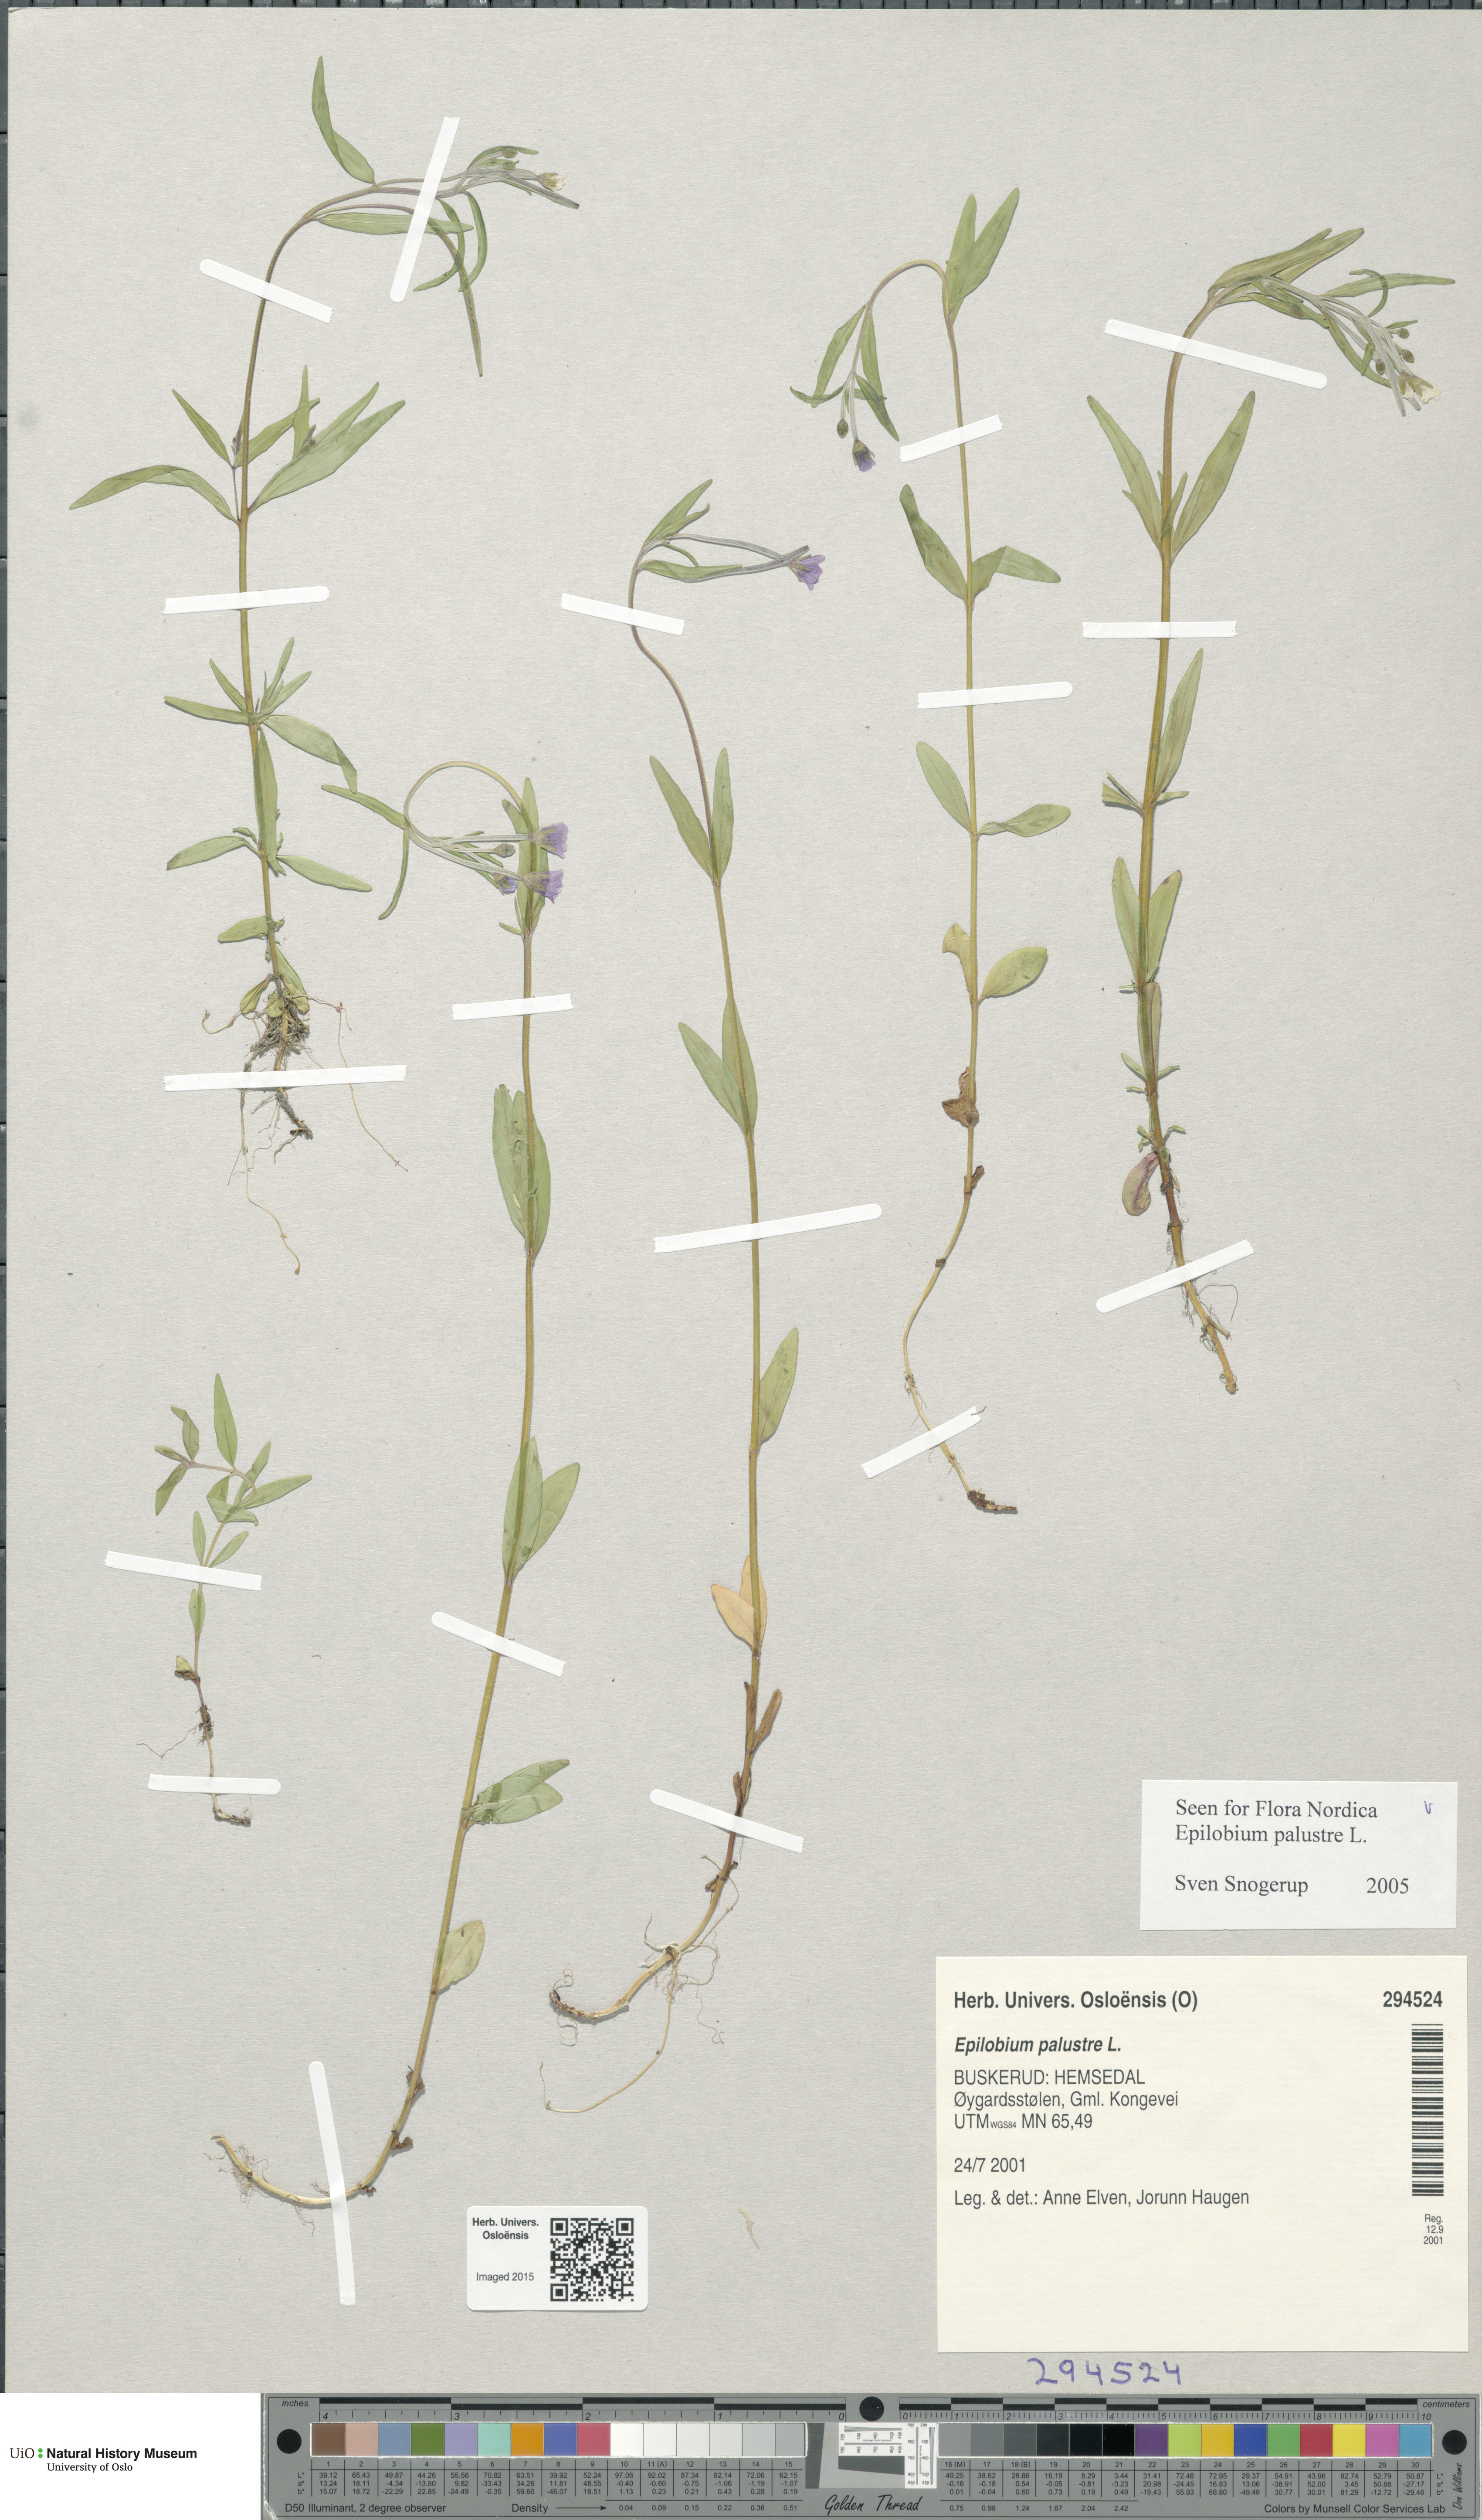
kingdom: Plantae
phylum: Tracheophyta
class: Magnoliopsida
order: Myrtales
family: Onagraceae
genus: Epilobium
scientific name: Epilobium palustre
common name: Marsh willowherb
